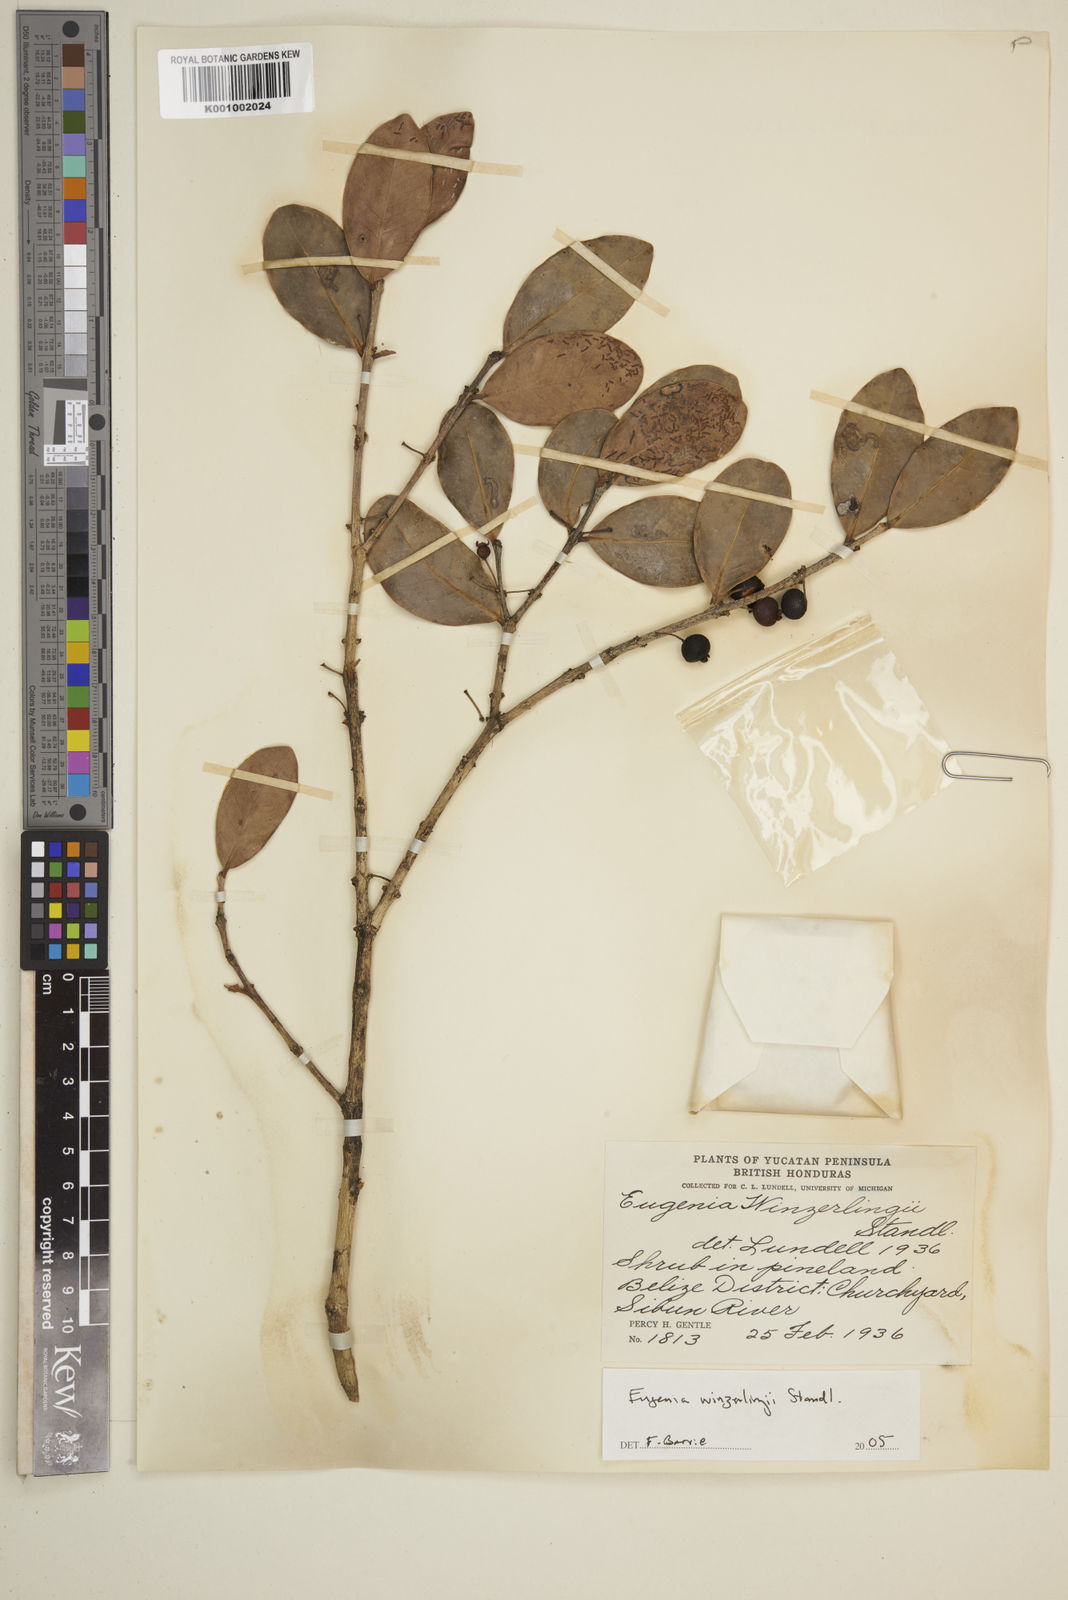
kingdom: Plantae
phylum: Tracheophyta
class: Magnoliopsida
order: Myrtales
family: Myrtaceae
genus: Eugenia
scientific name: Eugenia winzerlingii
